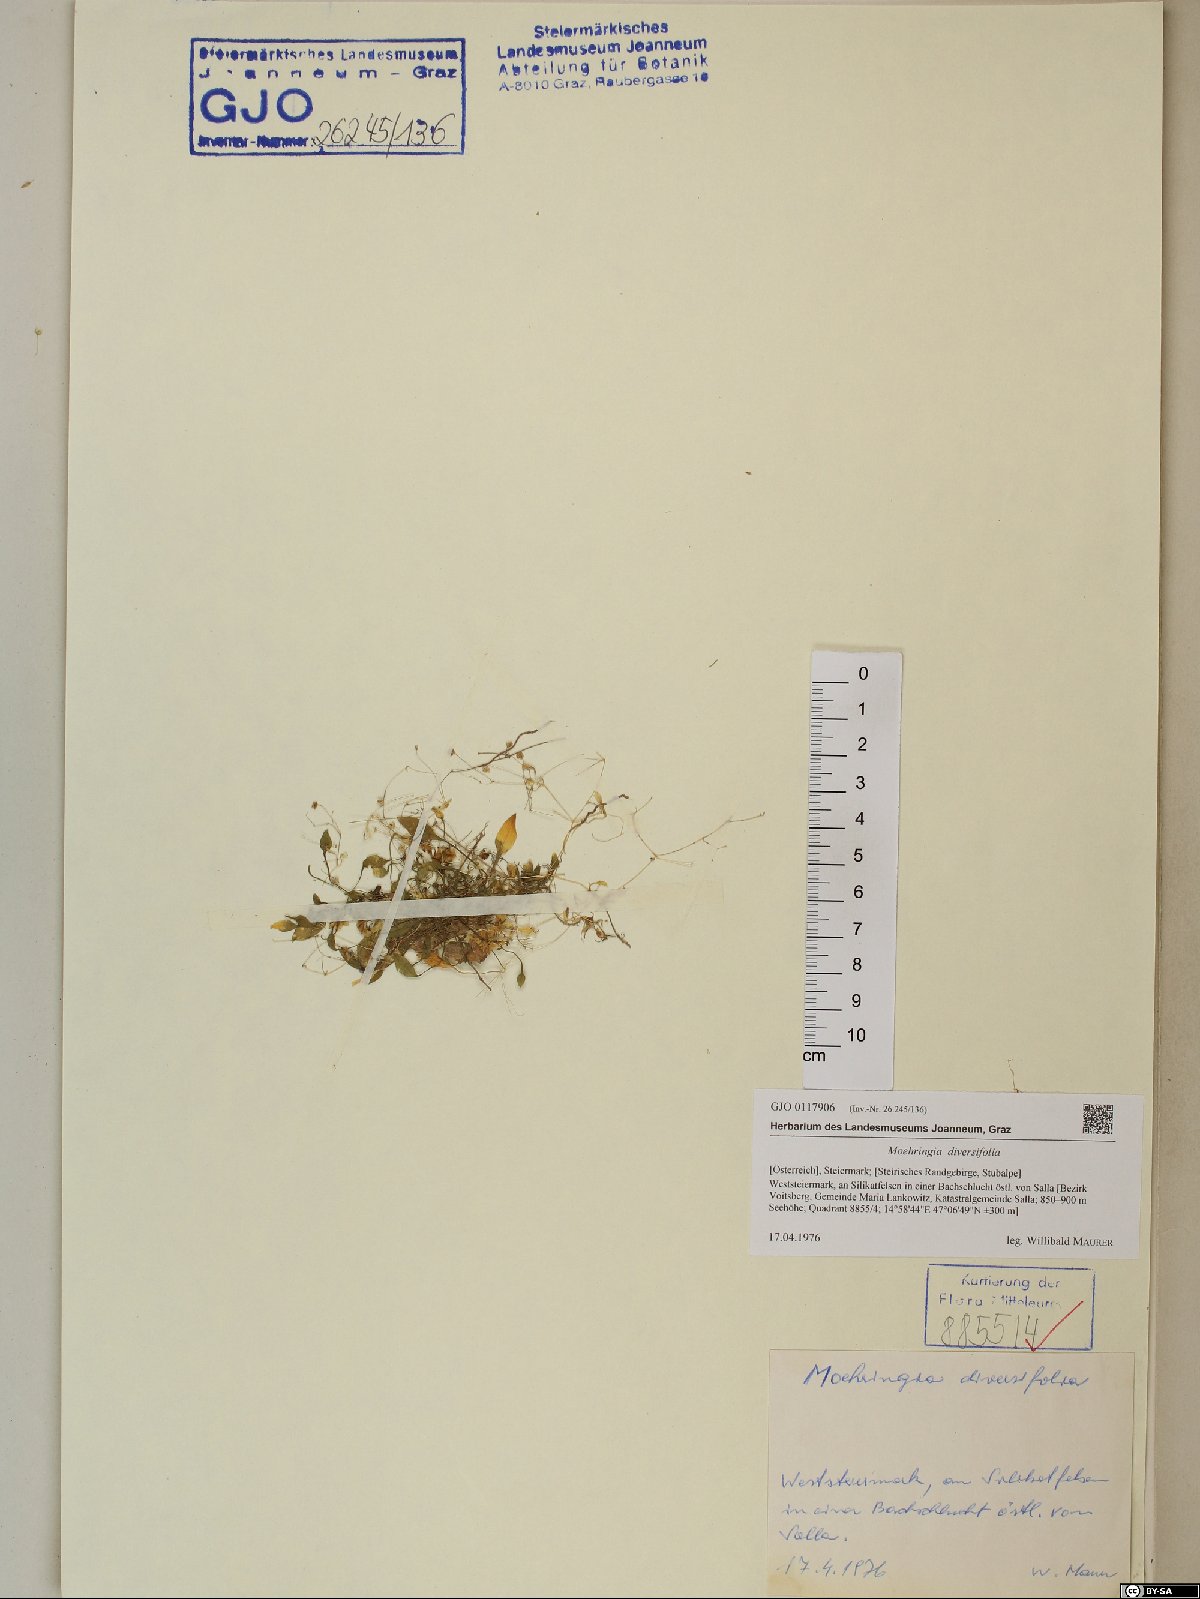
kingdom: Plantae
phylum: Tracheophyta
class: Magnoliopsida
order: Caryophyllales
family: Caryophyllaceae
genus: Moehringia
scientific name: Moehringia diversifolia
